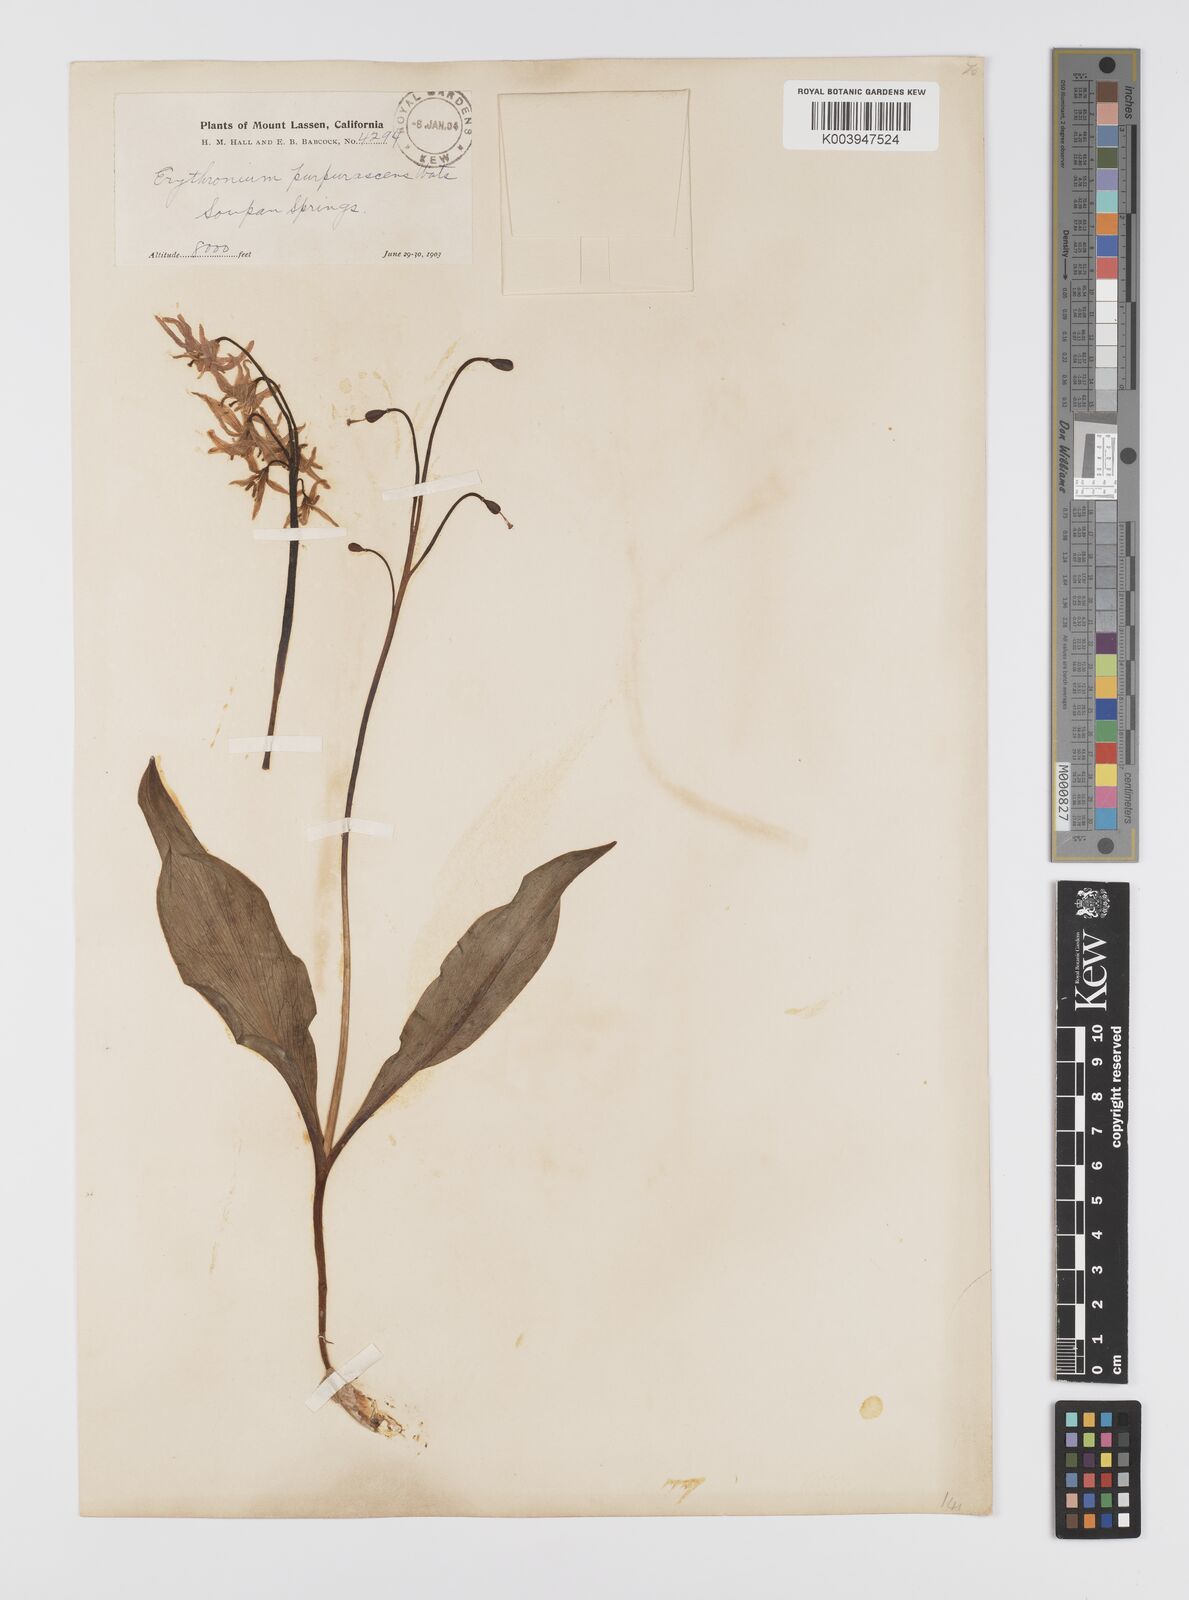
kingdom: Plantae
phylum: Tracheophyta
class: Liliopsida
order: Liliales
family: Liliaceae
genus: Erythronium
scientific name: Erythronium purpurascens
